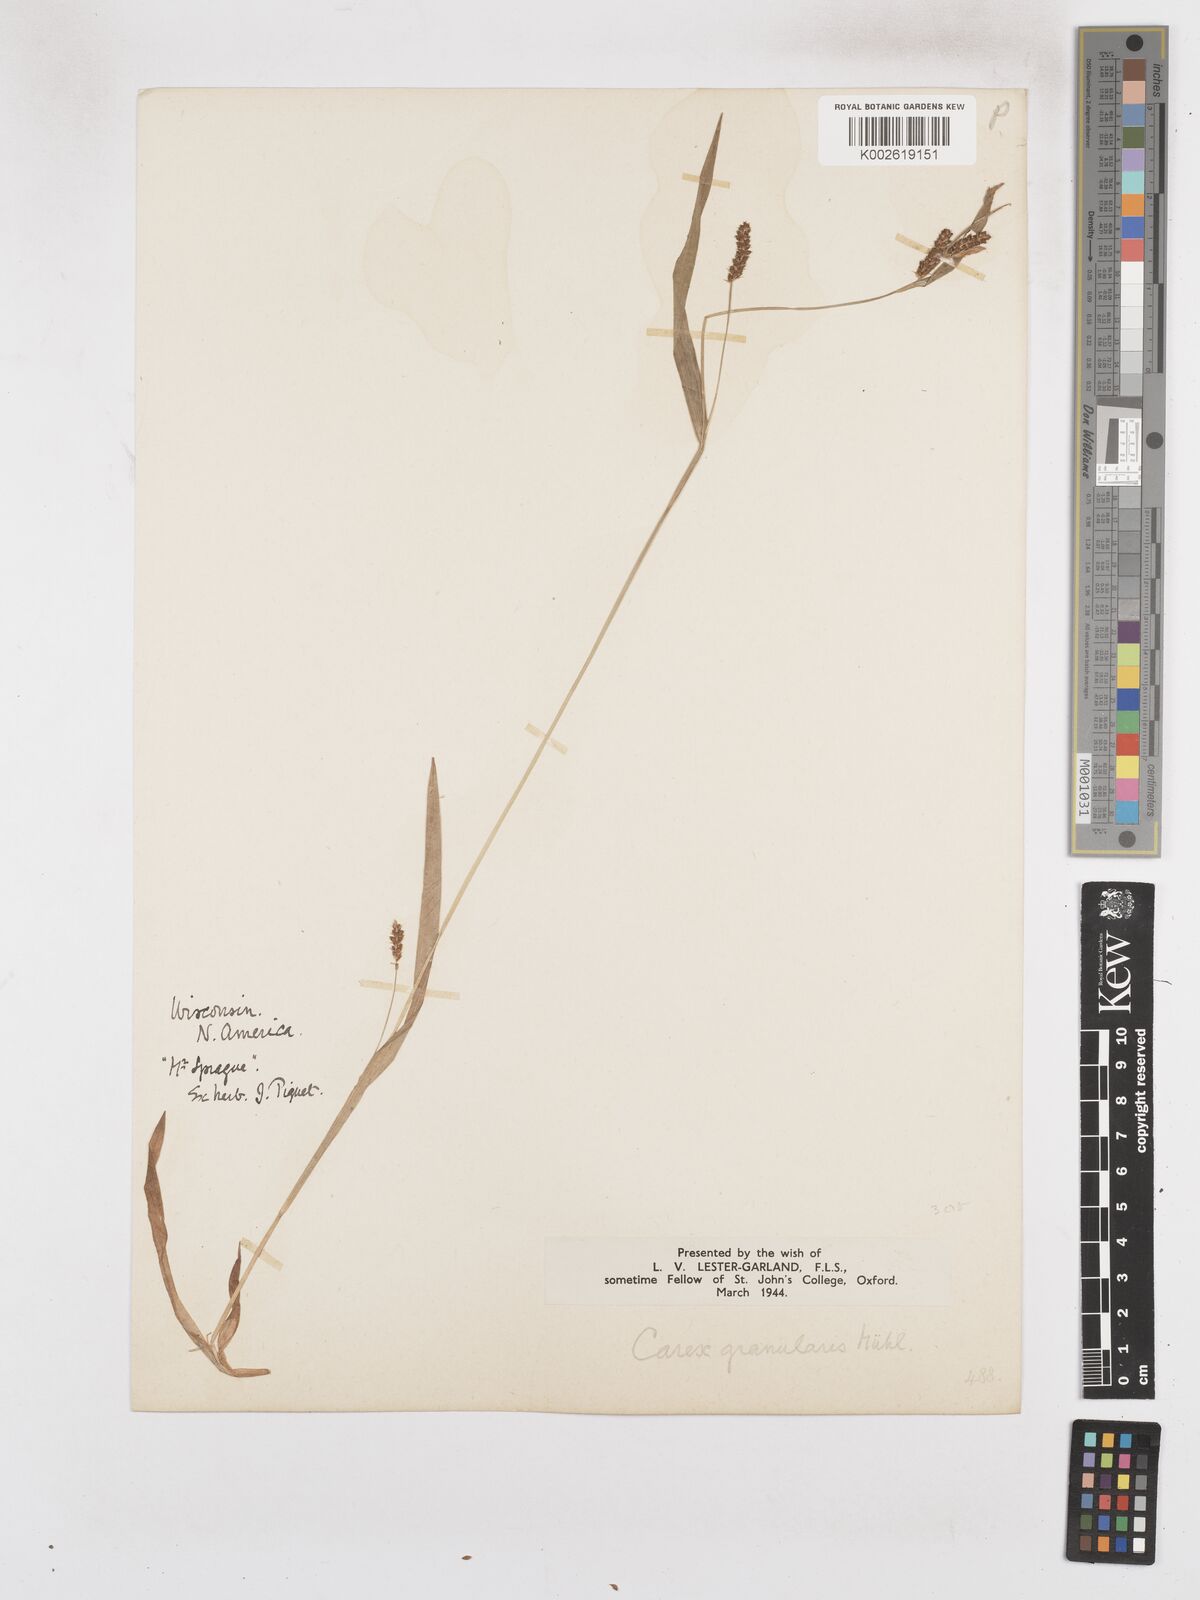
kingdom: Plantae
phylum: Tracheophyta
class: Liliopsida
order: Poales
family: Cyperaceae
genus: Carex
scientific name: Carex granularis
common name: Granular sedge
